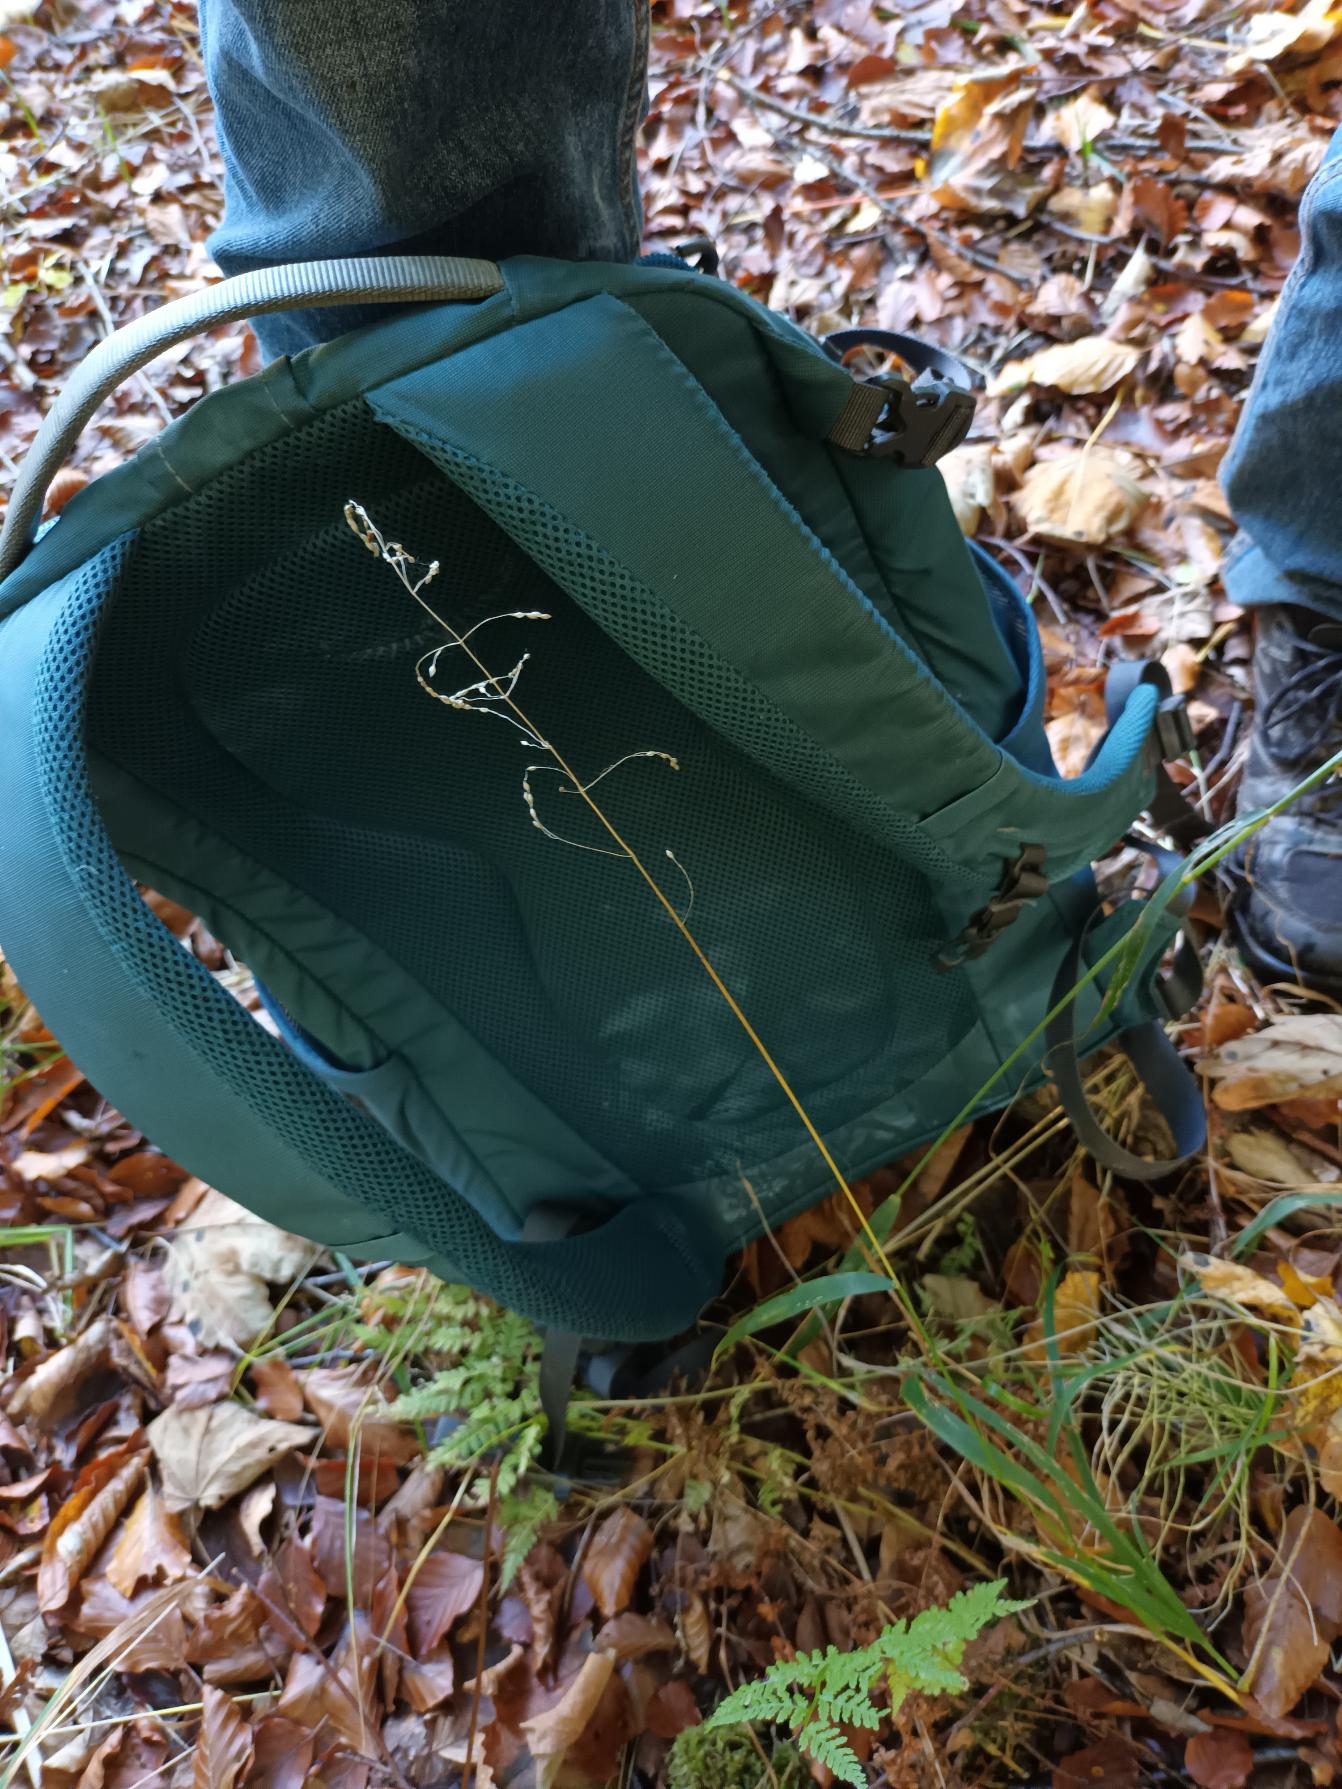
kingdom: Plantae
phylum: Tracheophyta
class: Liliopsida
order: Poales
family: Poaceae
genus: Milium
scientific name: Milium effusum
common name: Miliegræs
